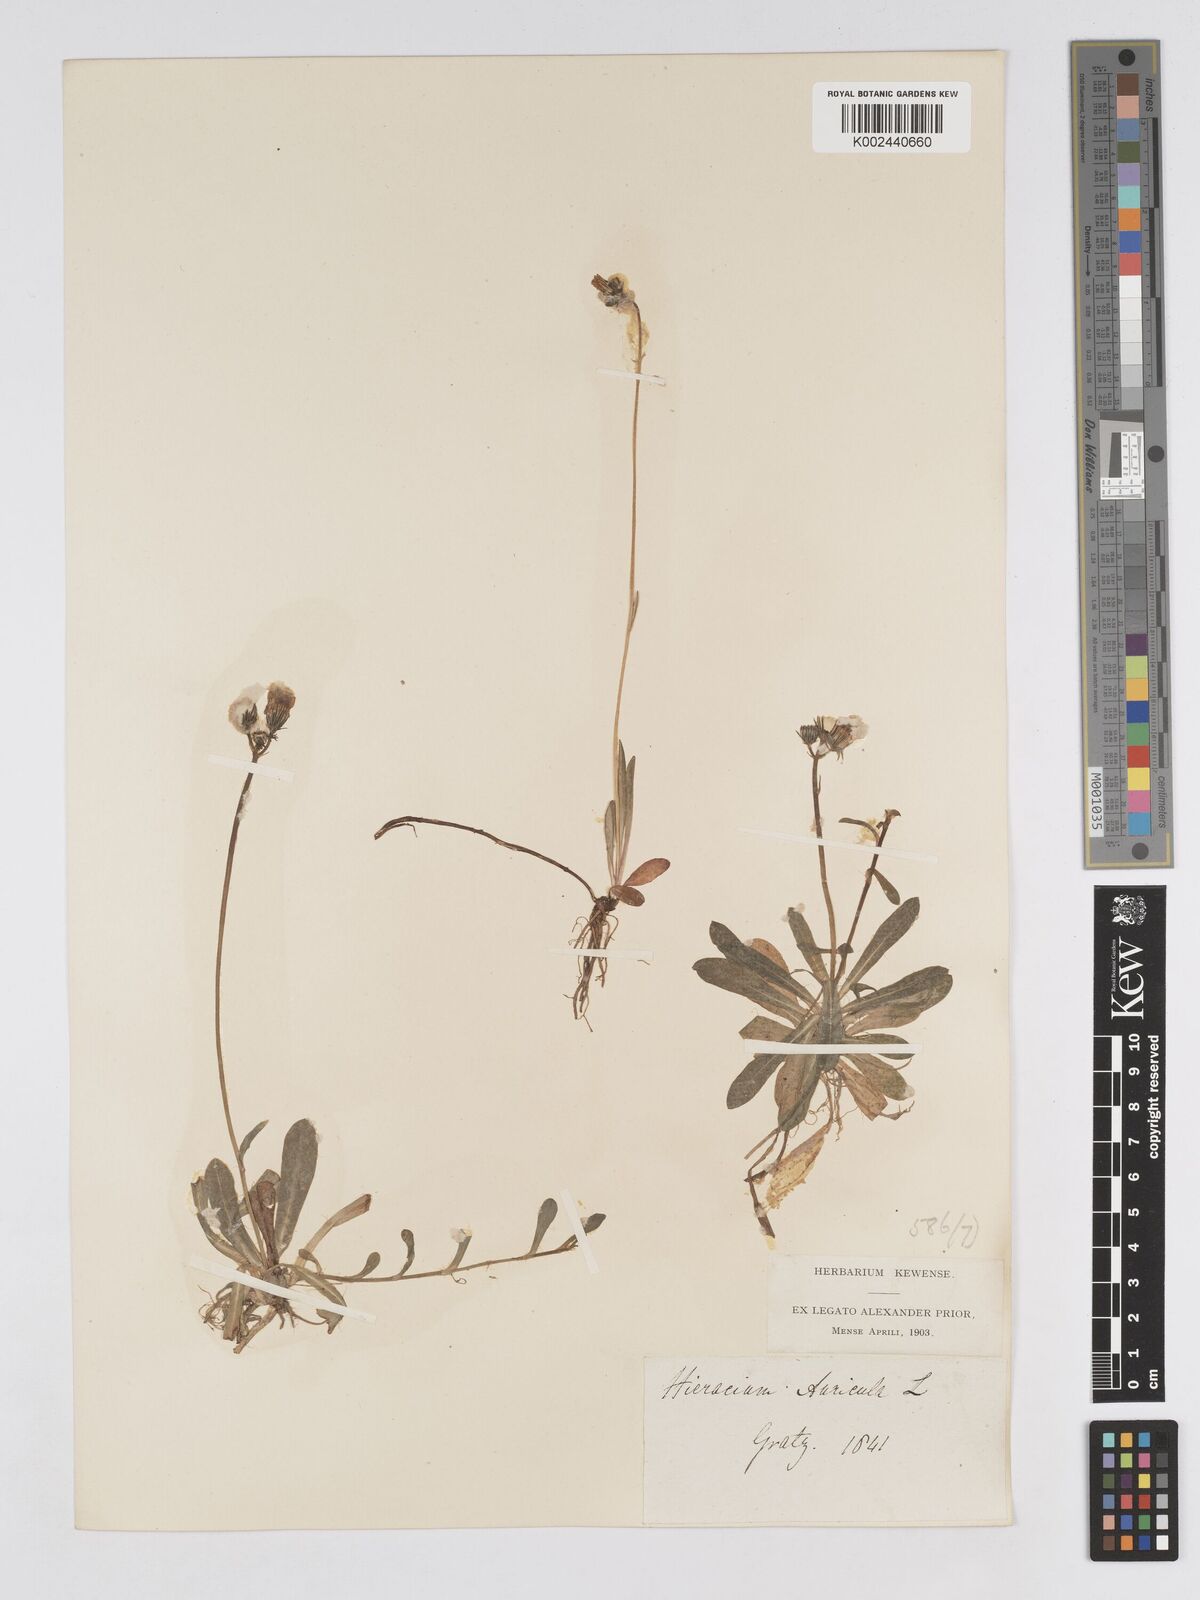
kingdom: Plantae
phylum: Tracheophyta
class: Magnoliopsida
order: Asterales
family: Asteraceae
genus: Pilosella
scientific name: Pilosella floribunda
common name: Glaucous hawkweed
